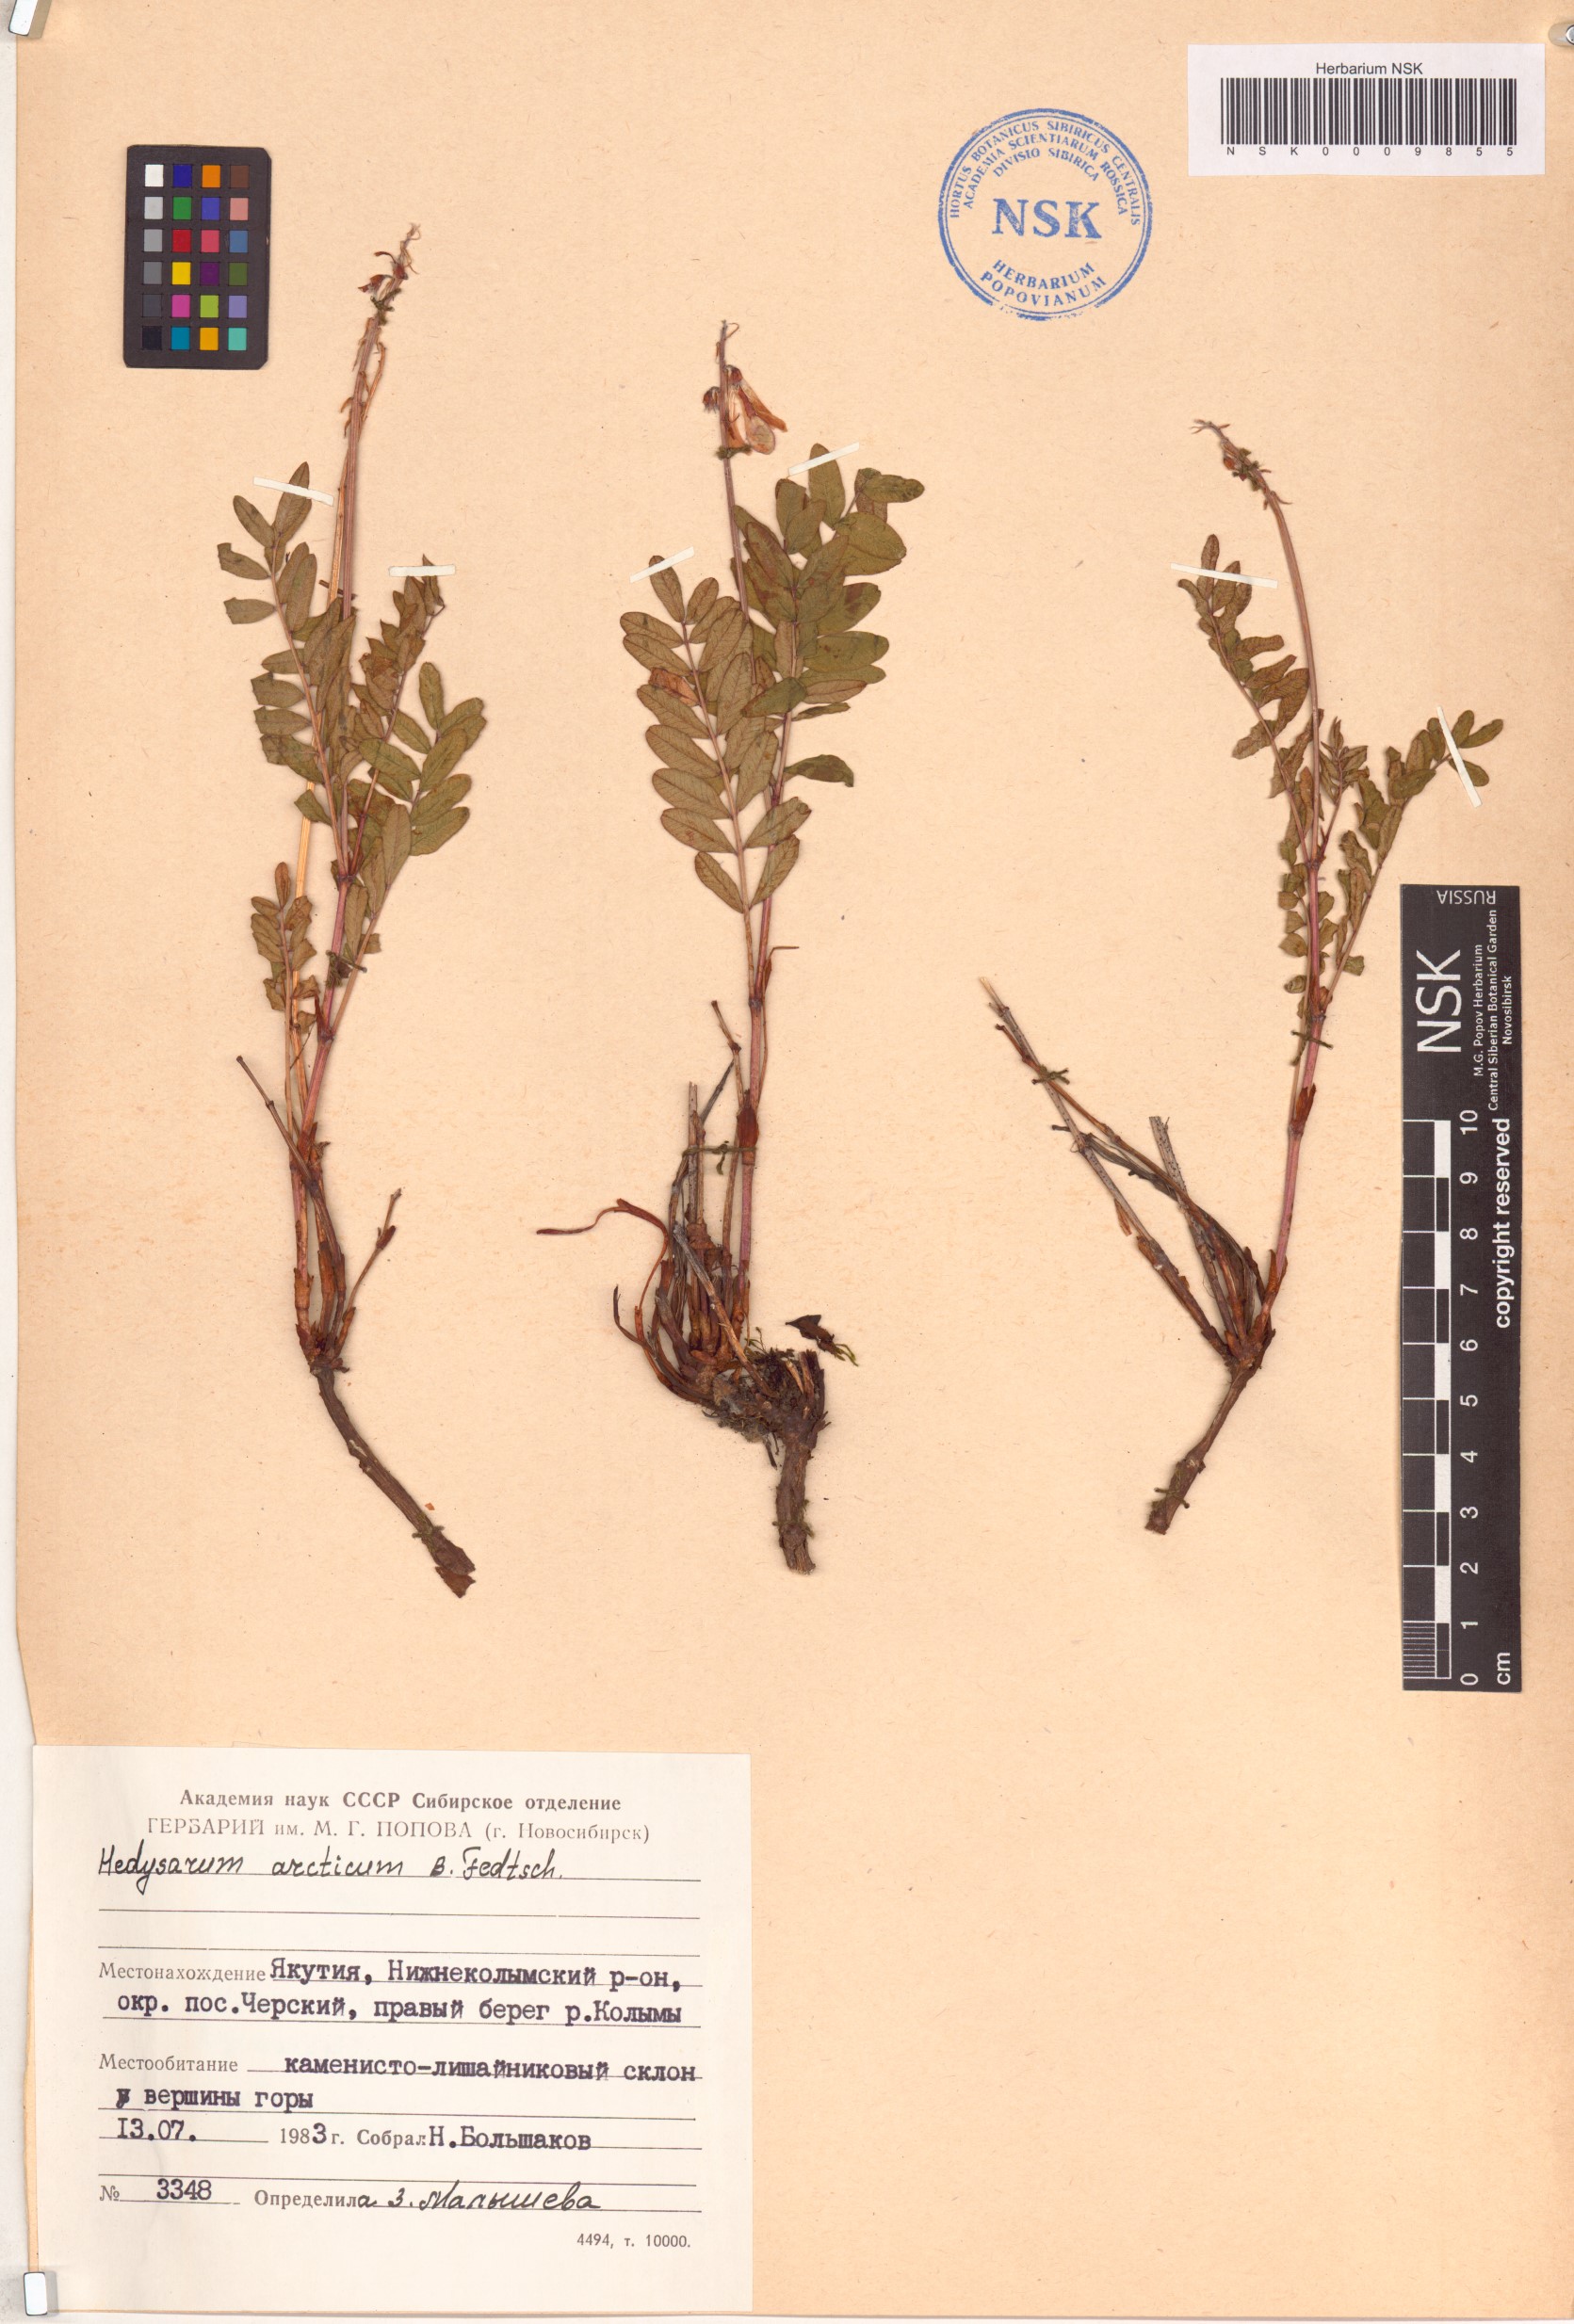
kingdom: Plantae
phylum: Tracheophyta
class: Magnoliopsida
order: Fabales
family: Fabaceae
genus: Hedysarum
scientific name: Hedysarum hedysaroides
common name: Alpine french-honeysuckle
